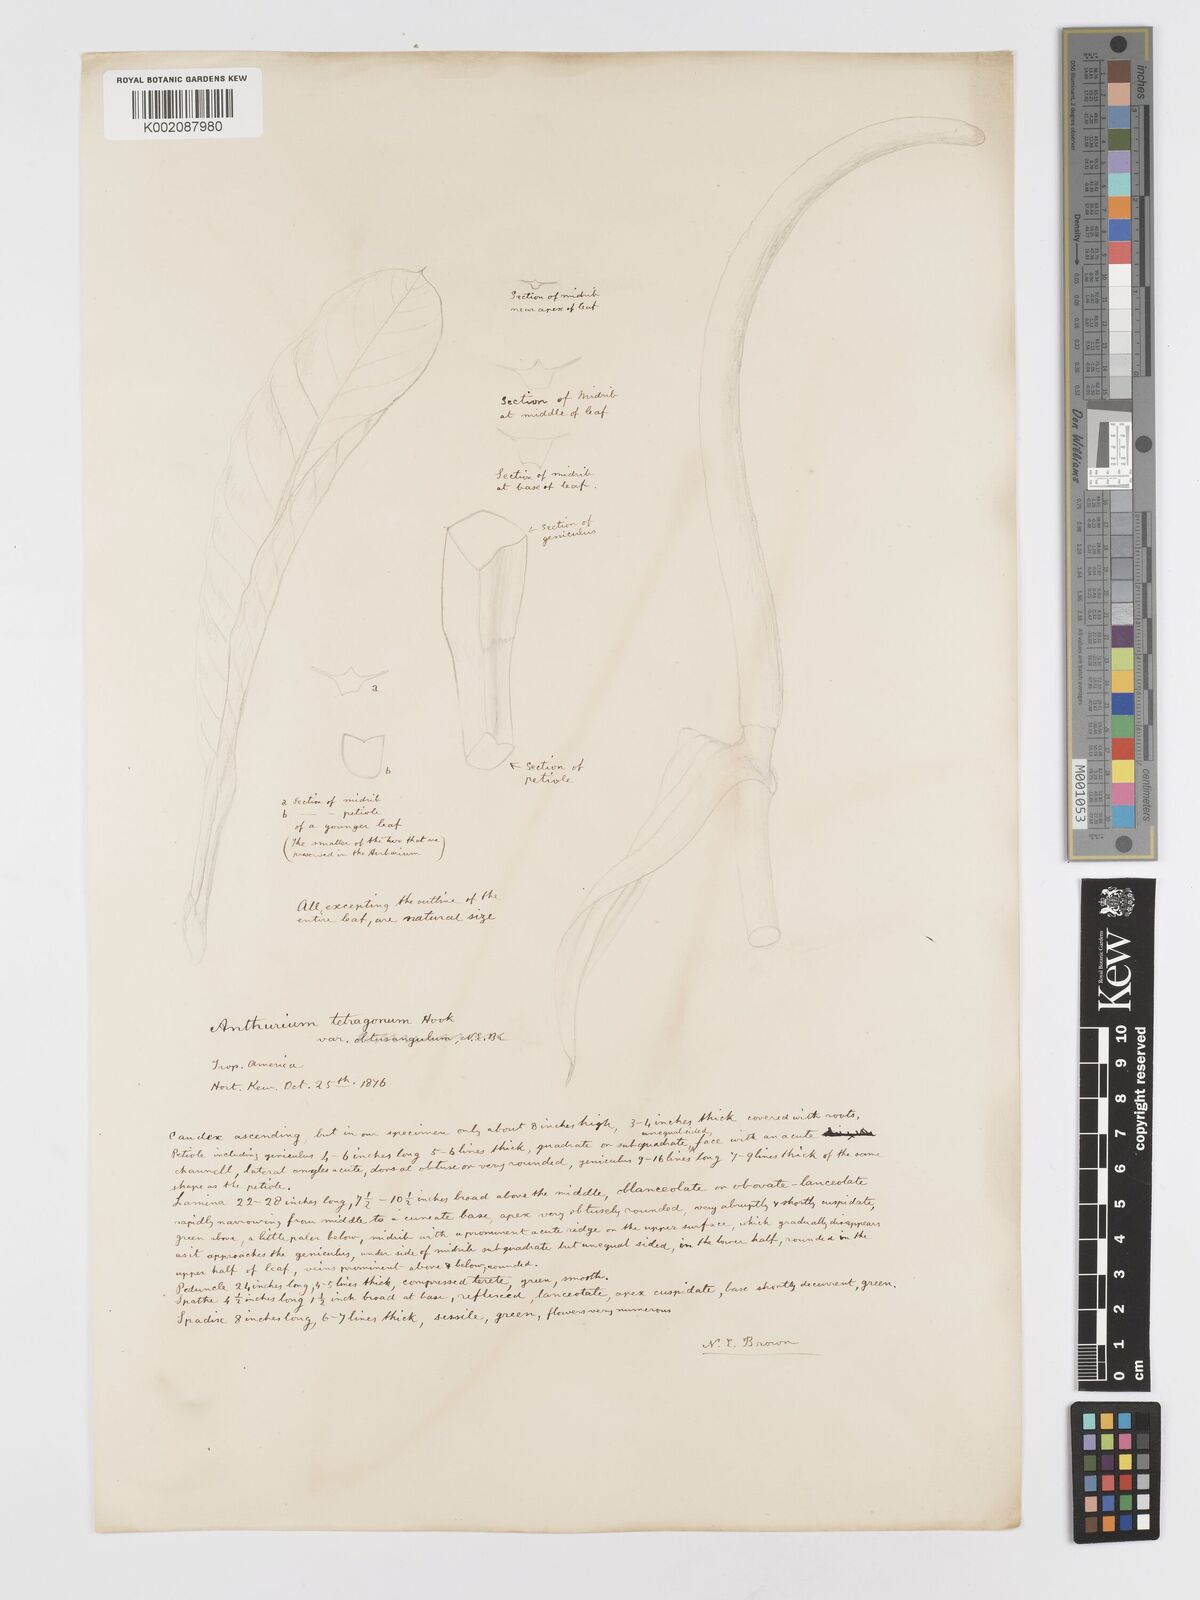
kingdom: Plantae
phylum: Tracheophyta
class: Liliopsida
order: Alismatales
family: Araceae
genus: Anthurium
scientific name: Anthurium schlechtendalii
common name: Laceleaf
